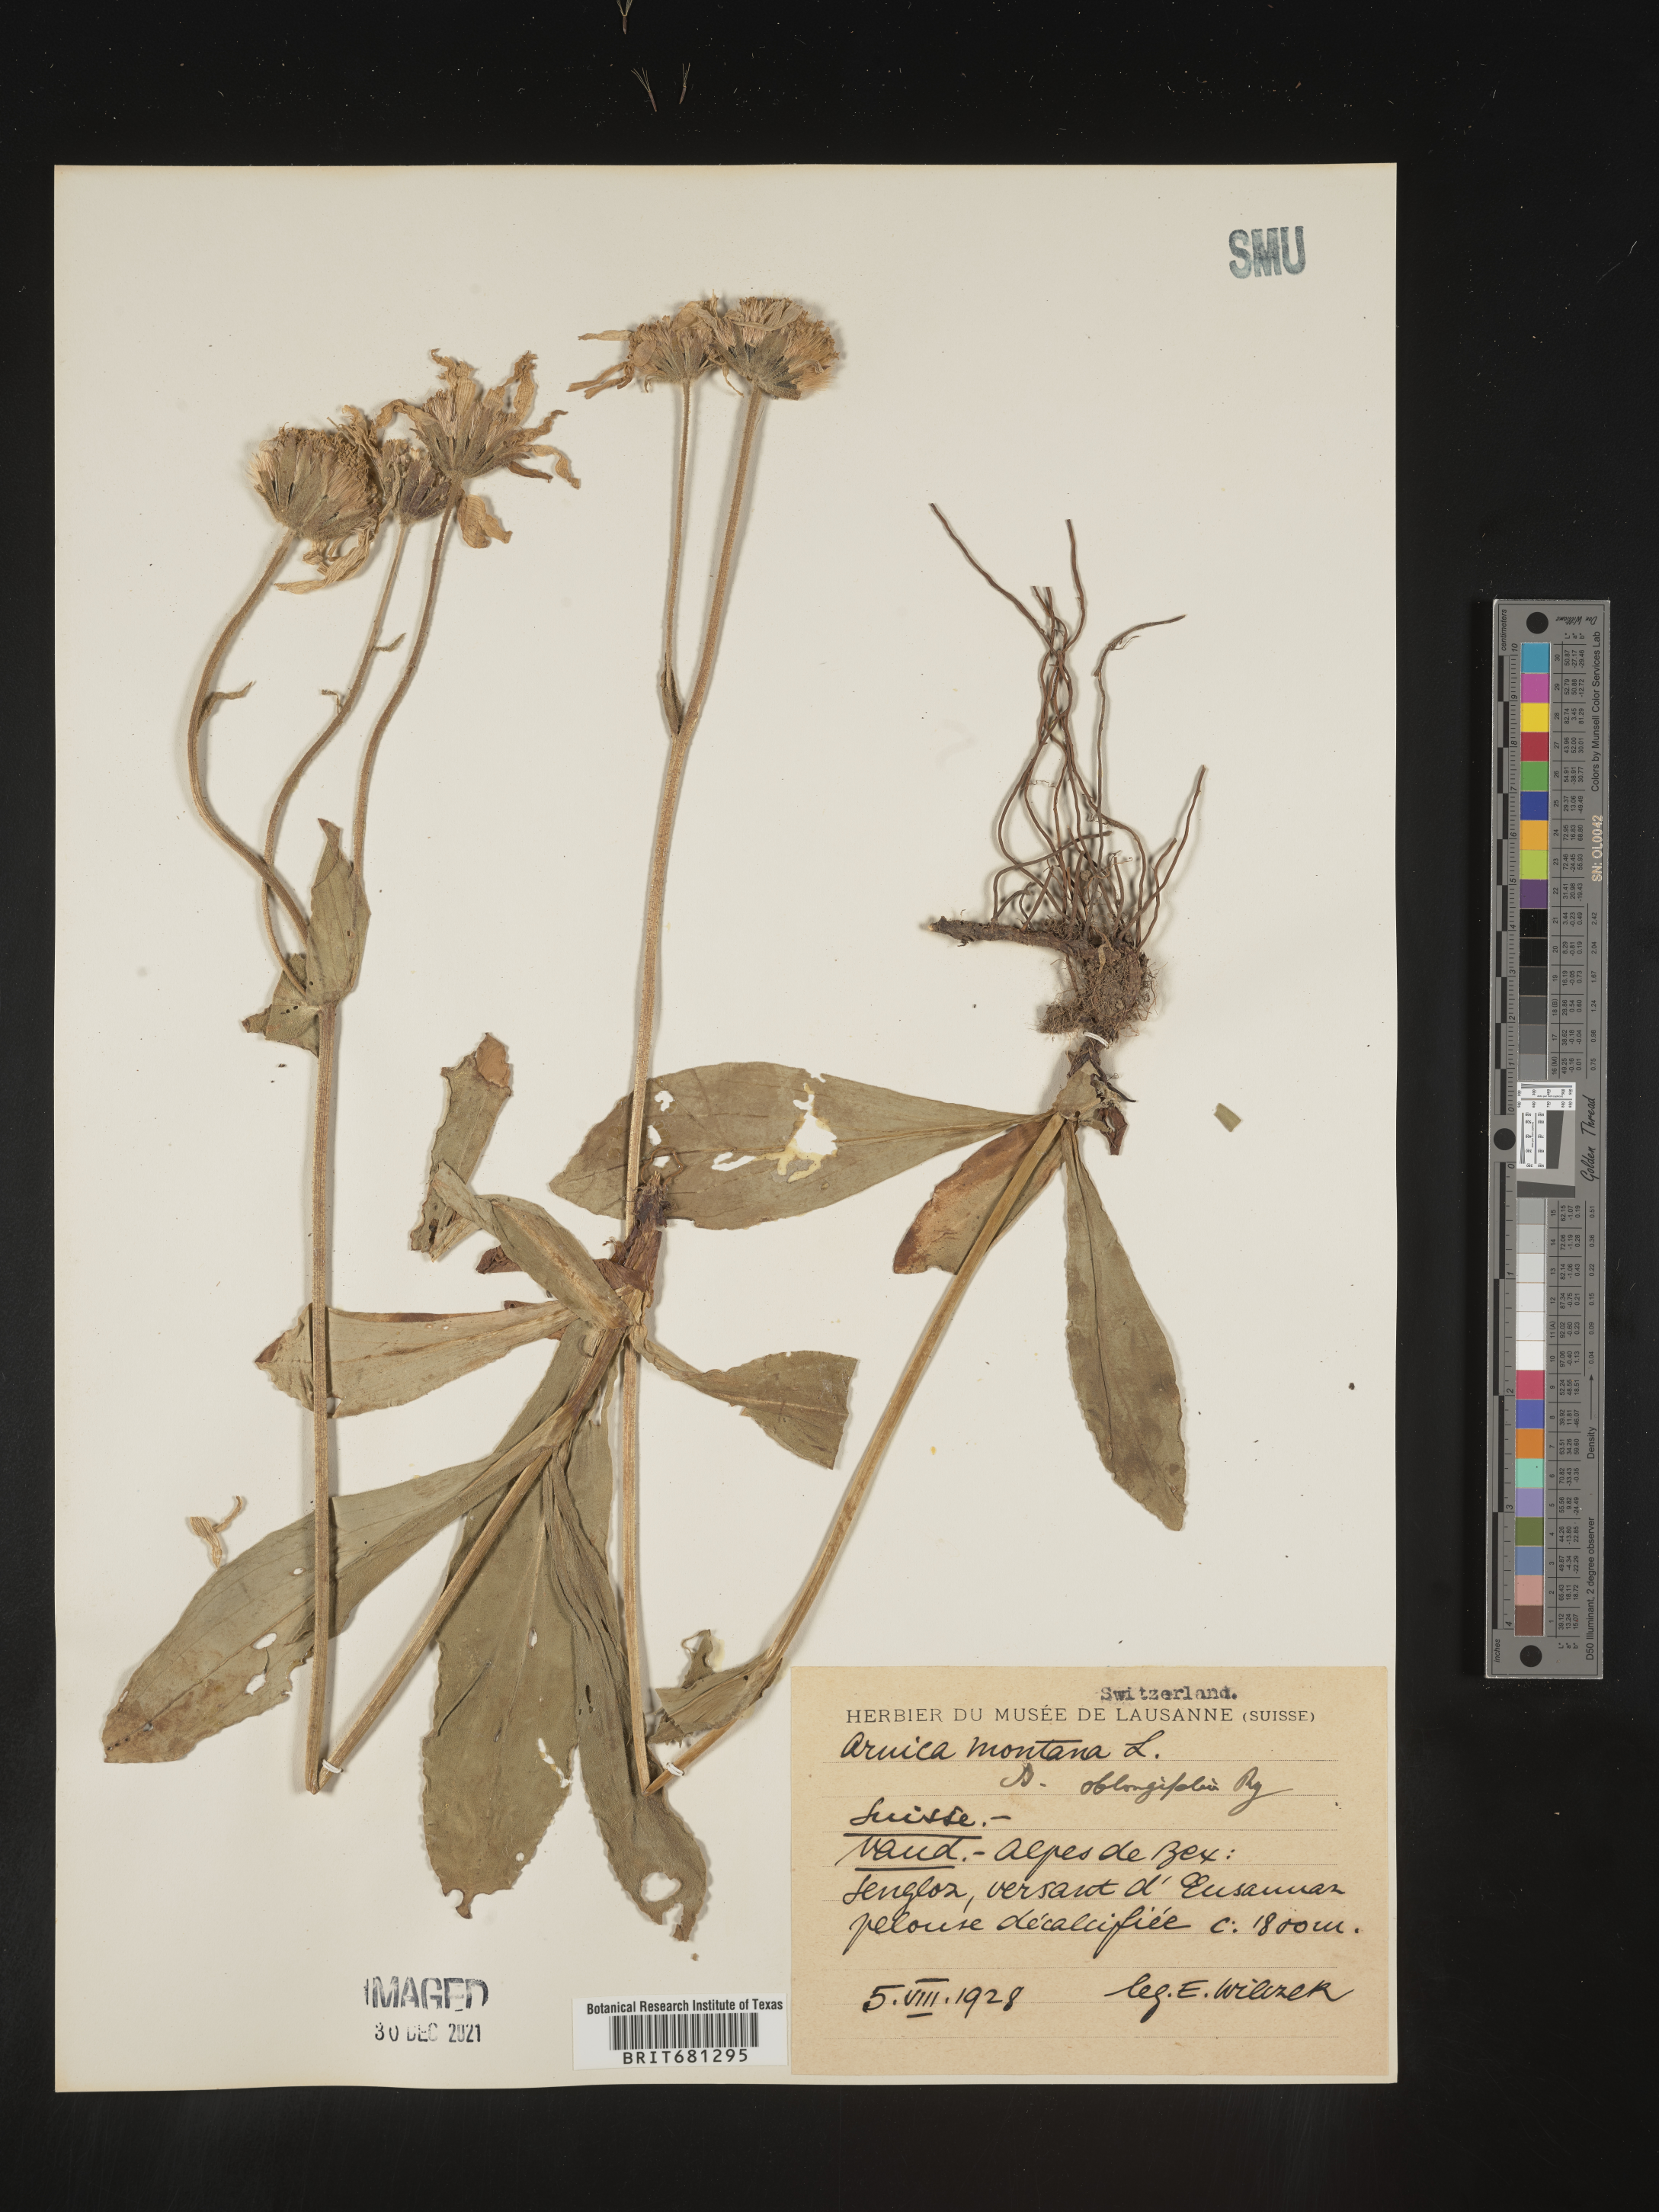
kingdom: Plantae
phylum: Tracheophyta
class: Magnoliopsida
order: Asterales
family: Asteraceae
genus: Arnica
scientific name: Arnica
